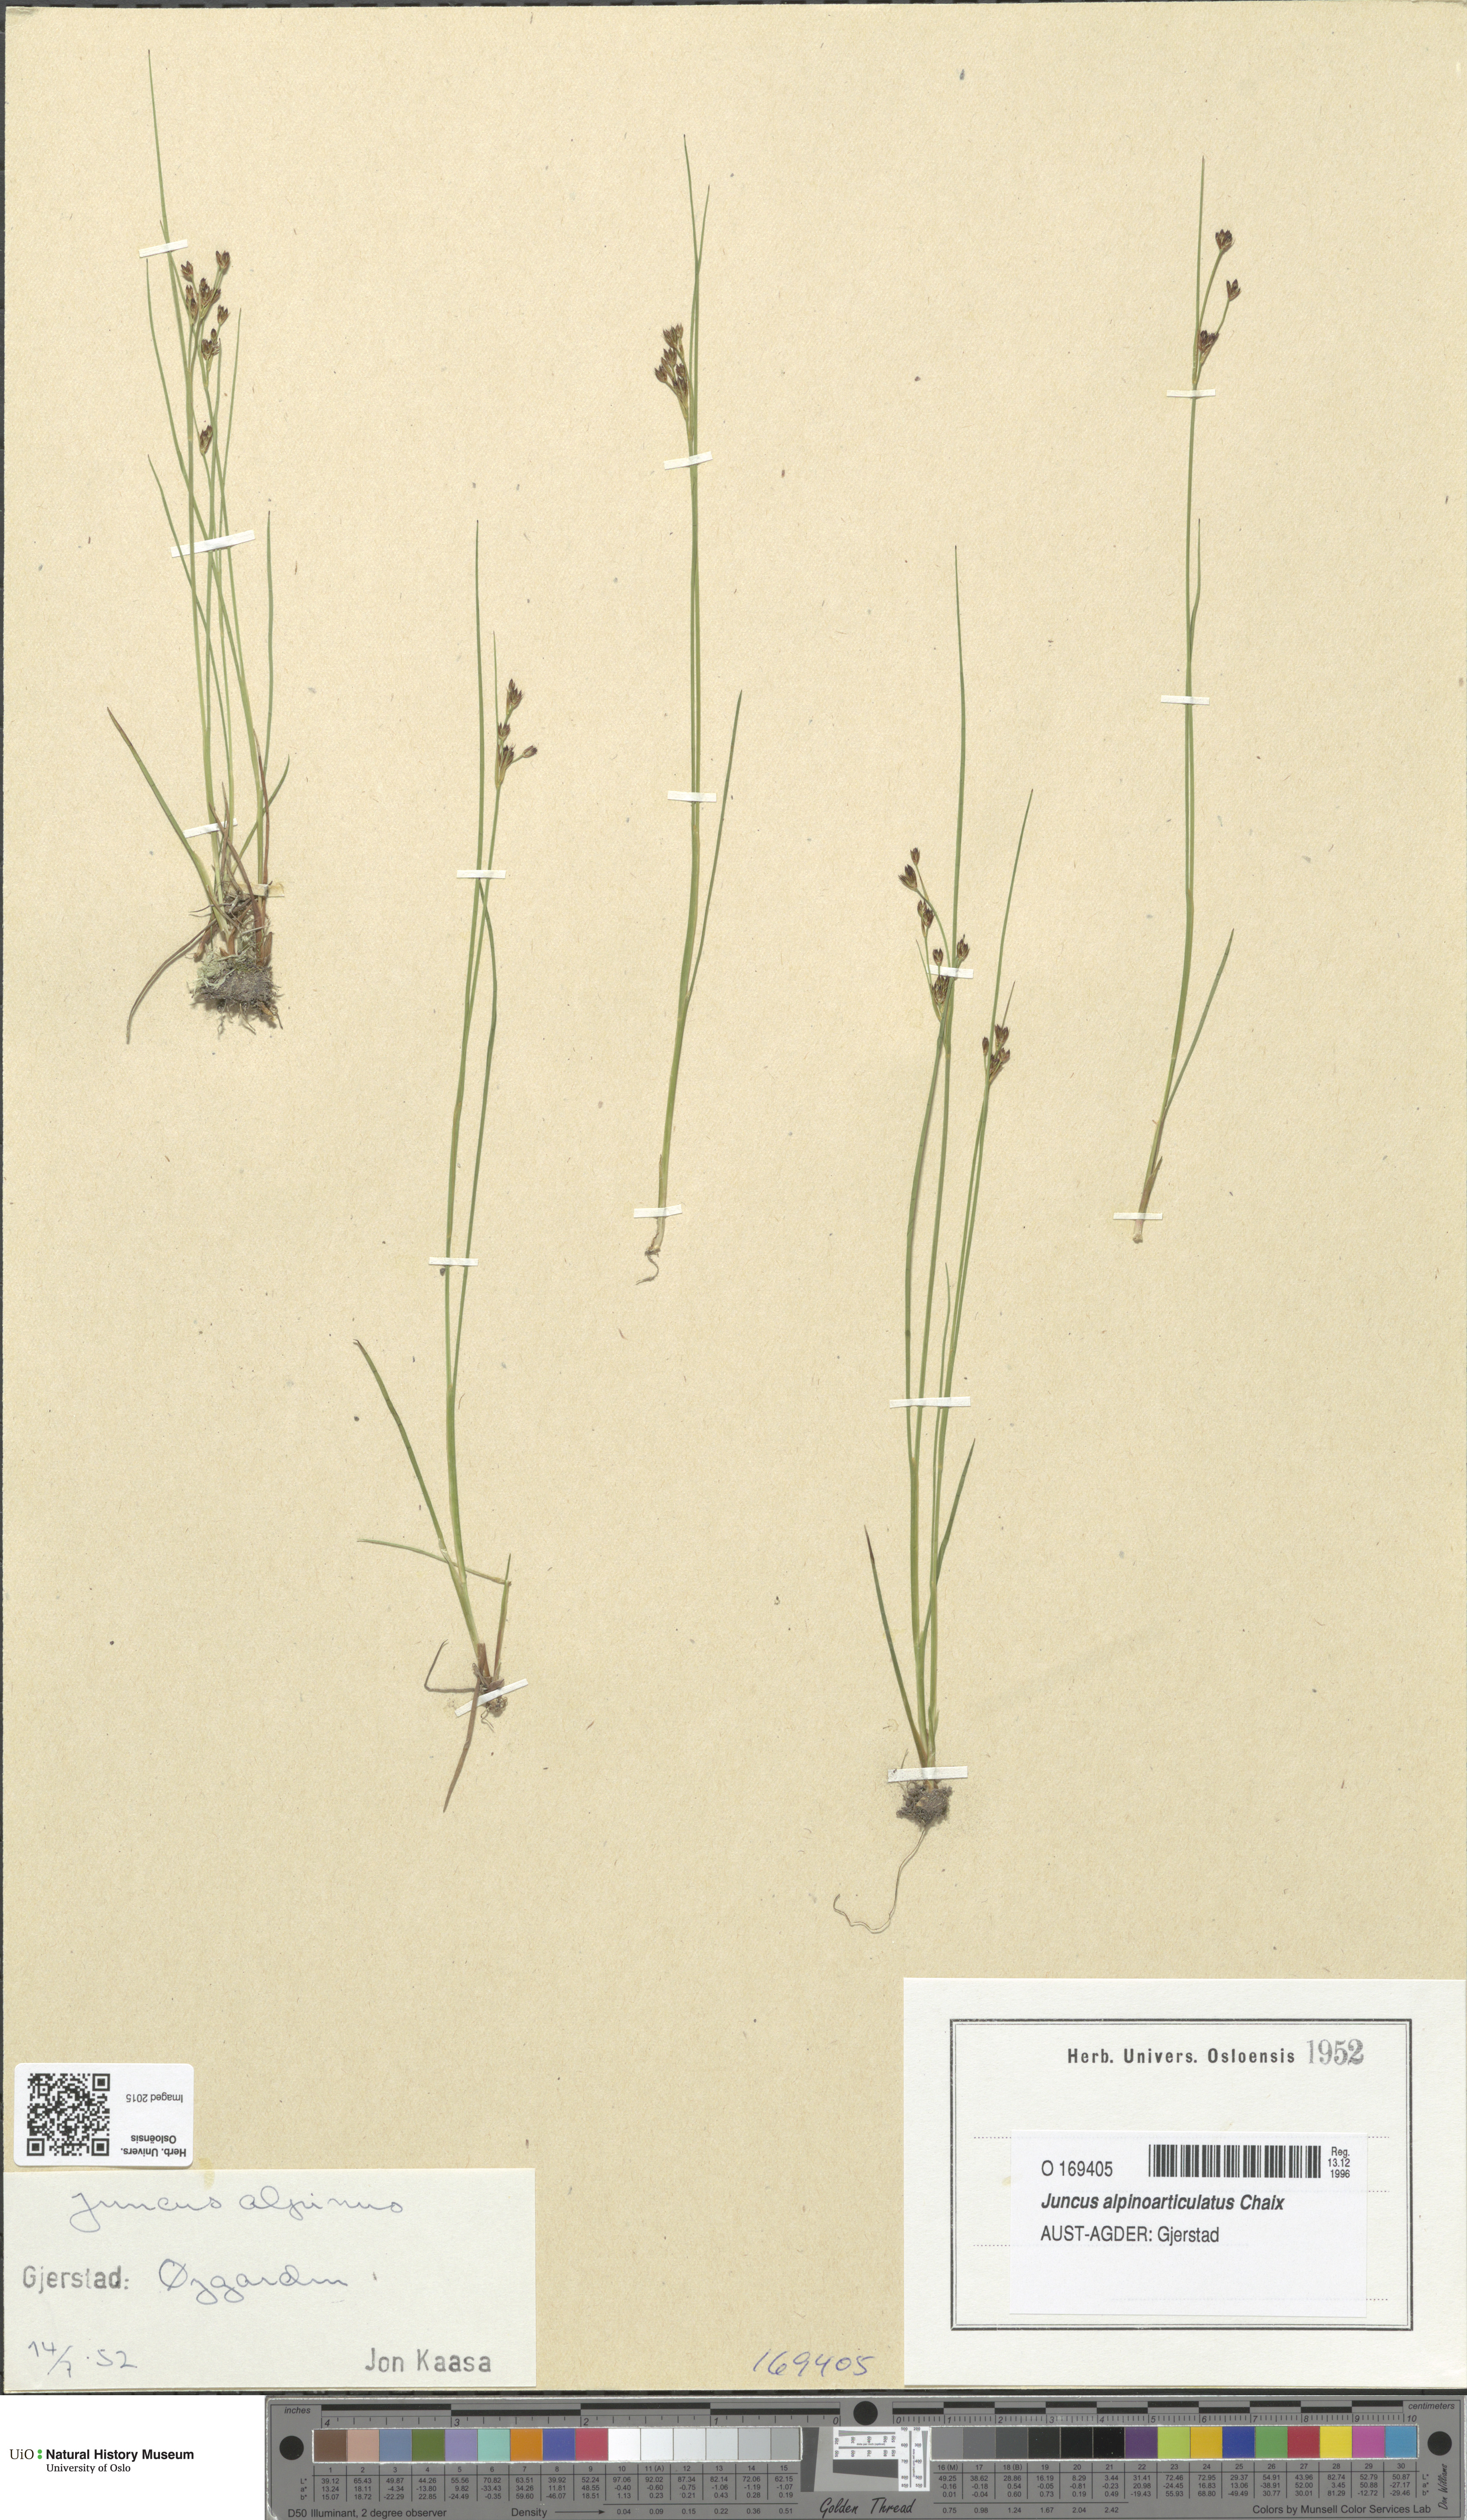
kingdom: Plantae
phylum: Tracheophyta
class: Liliopsida
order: Poales
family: Juncaceae
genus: Juncus
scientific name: Juncus alpinoarticulatus
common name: Alpine rush
